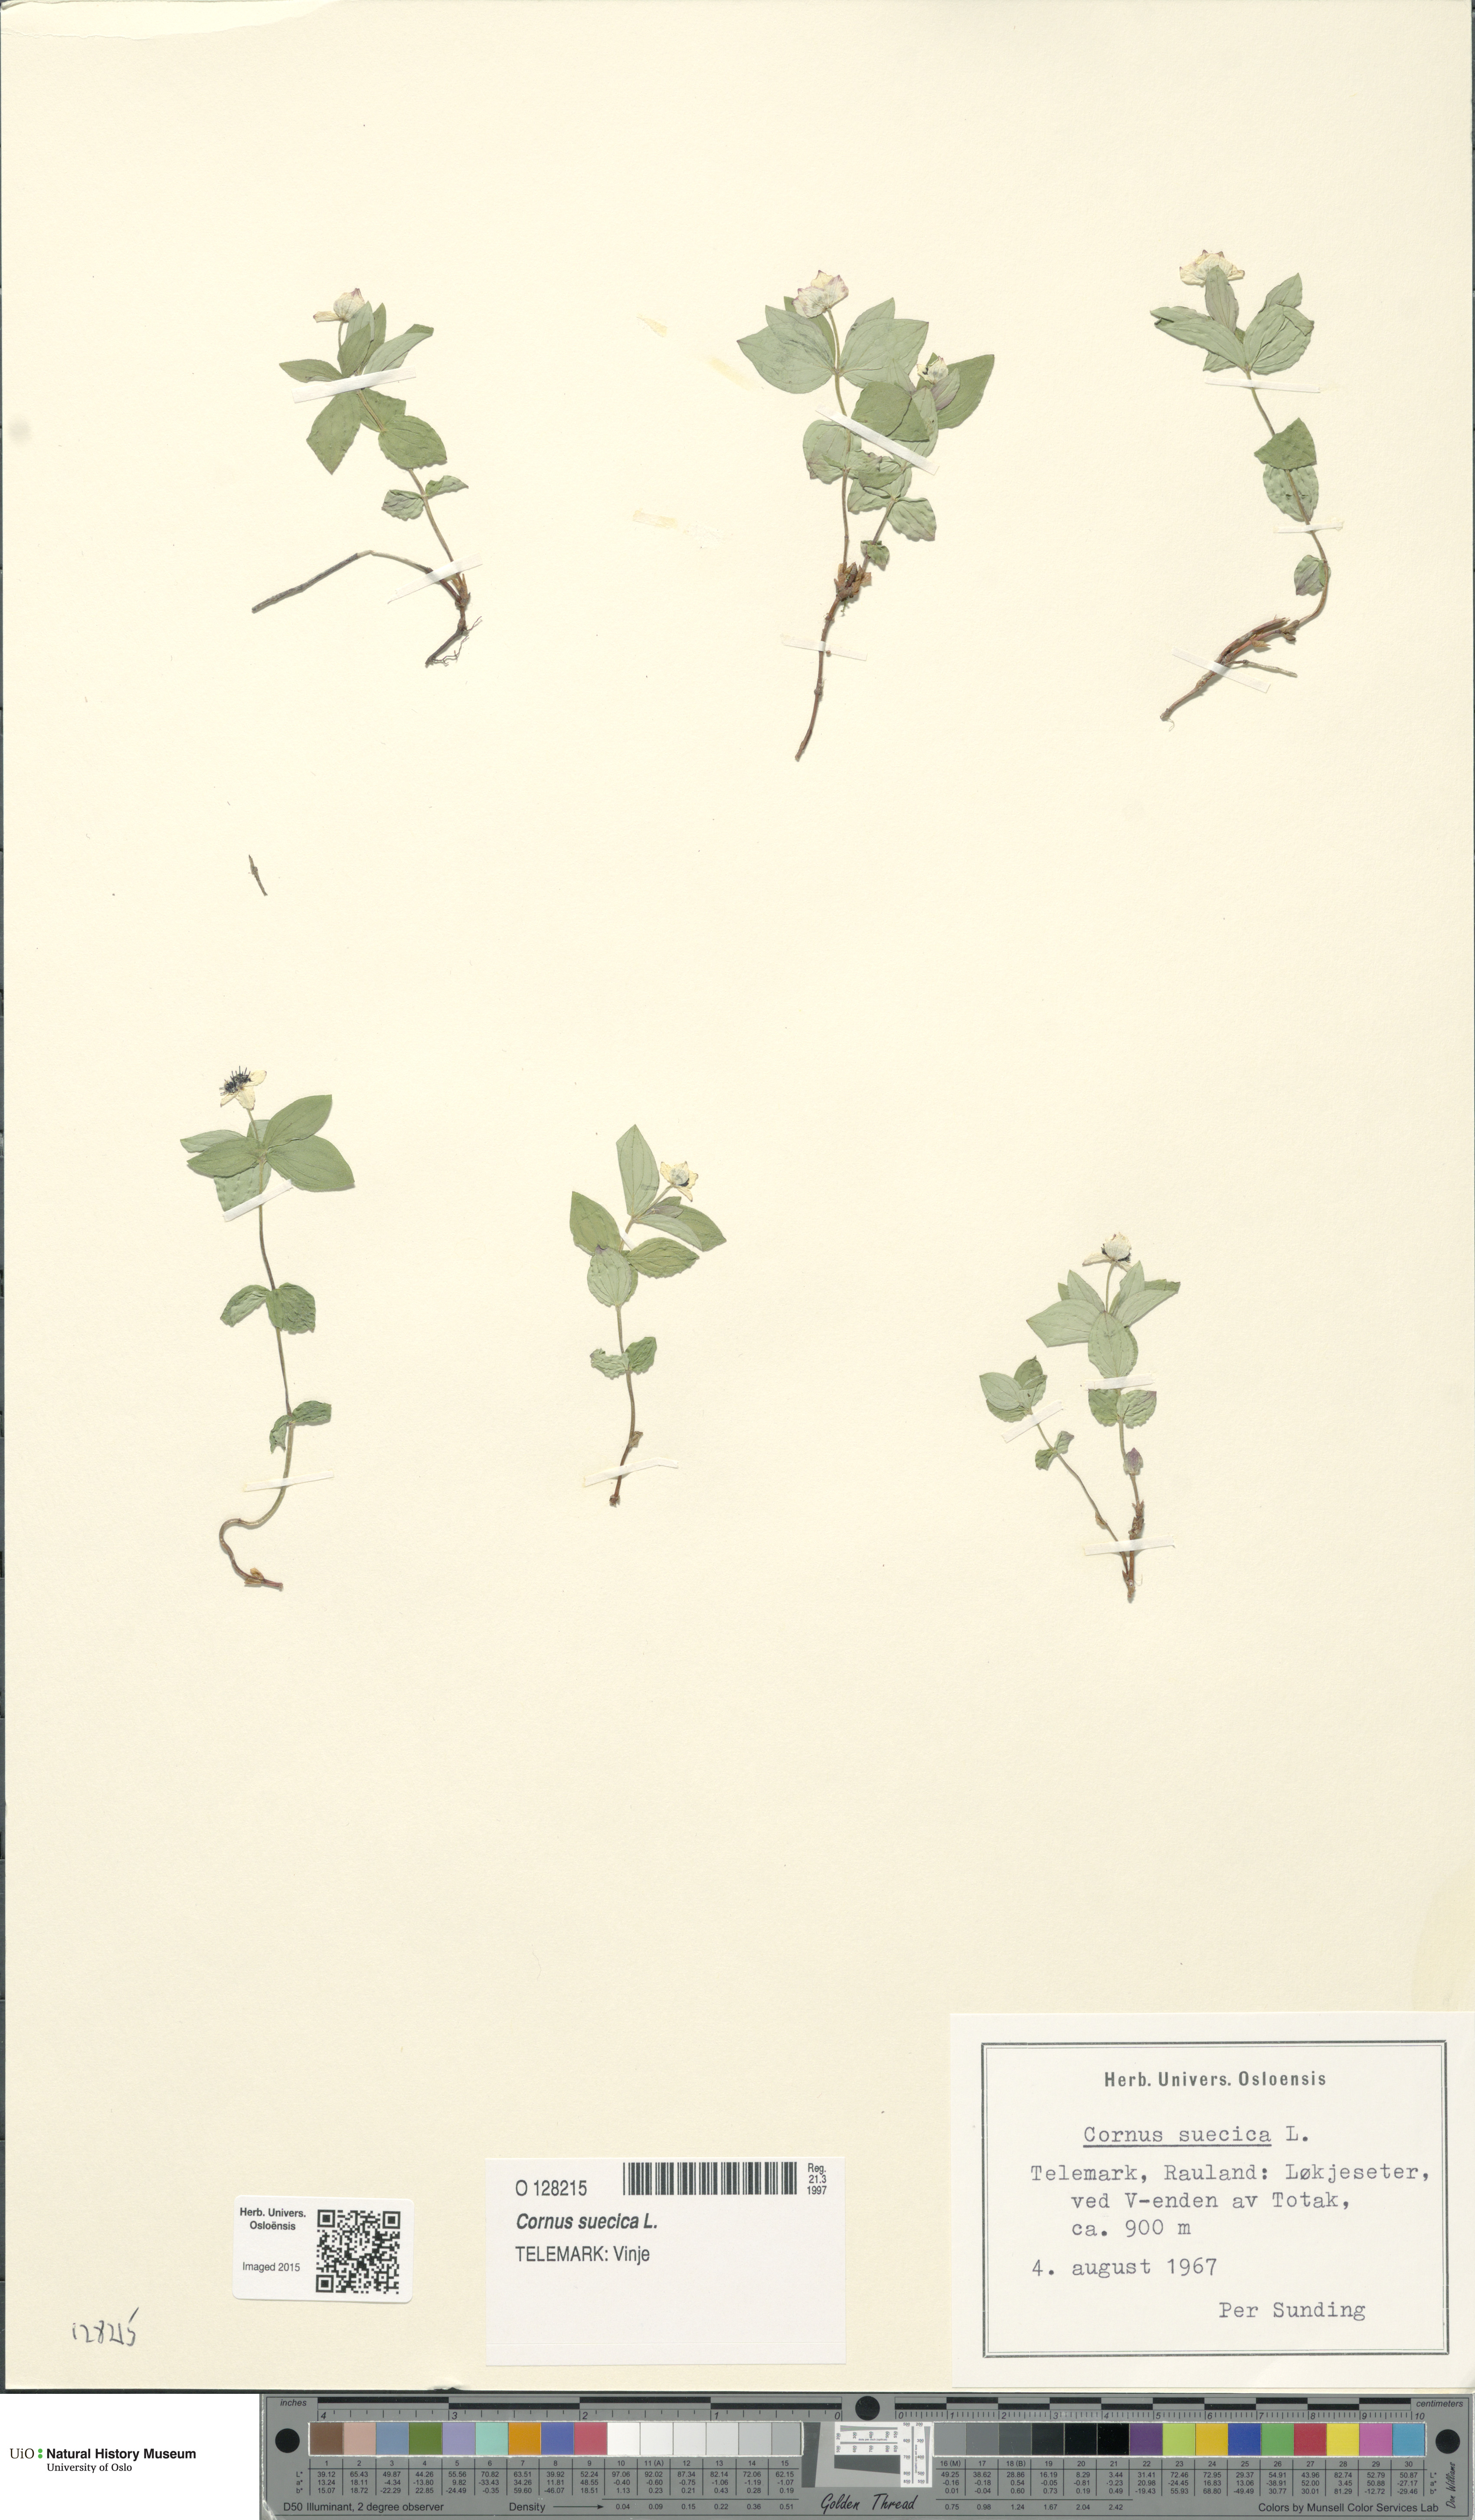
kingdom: Plantae
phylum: Tracheophyta
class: Magnoliopsida
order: Cornales
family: Cornaceae
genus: Cornus
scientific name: Cornus suecica
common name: Dwarf cornel
